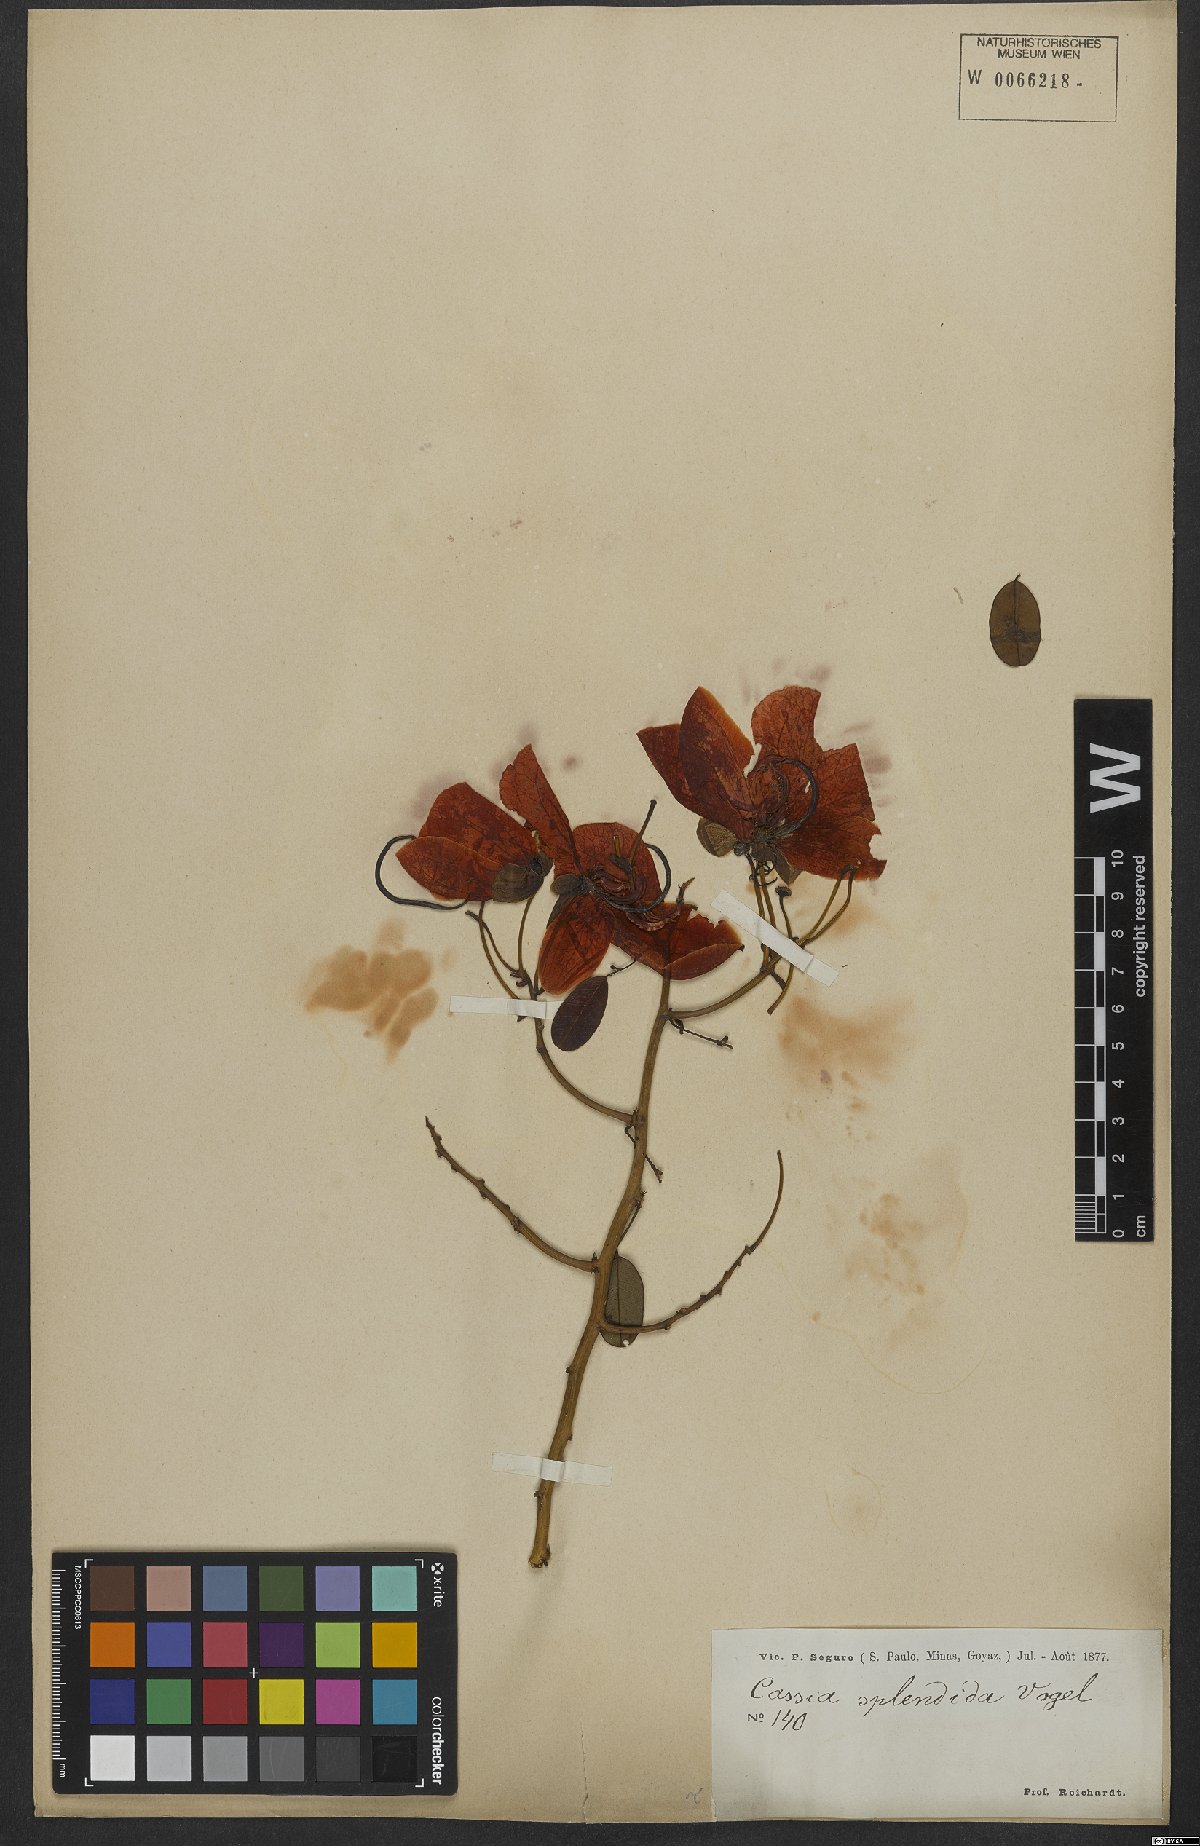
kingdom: Plantae
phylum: Tracheophyta
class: Magnoliopsida
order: Fabales
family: Fabaceae
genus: Senna
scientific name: Senna splendida
